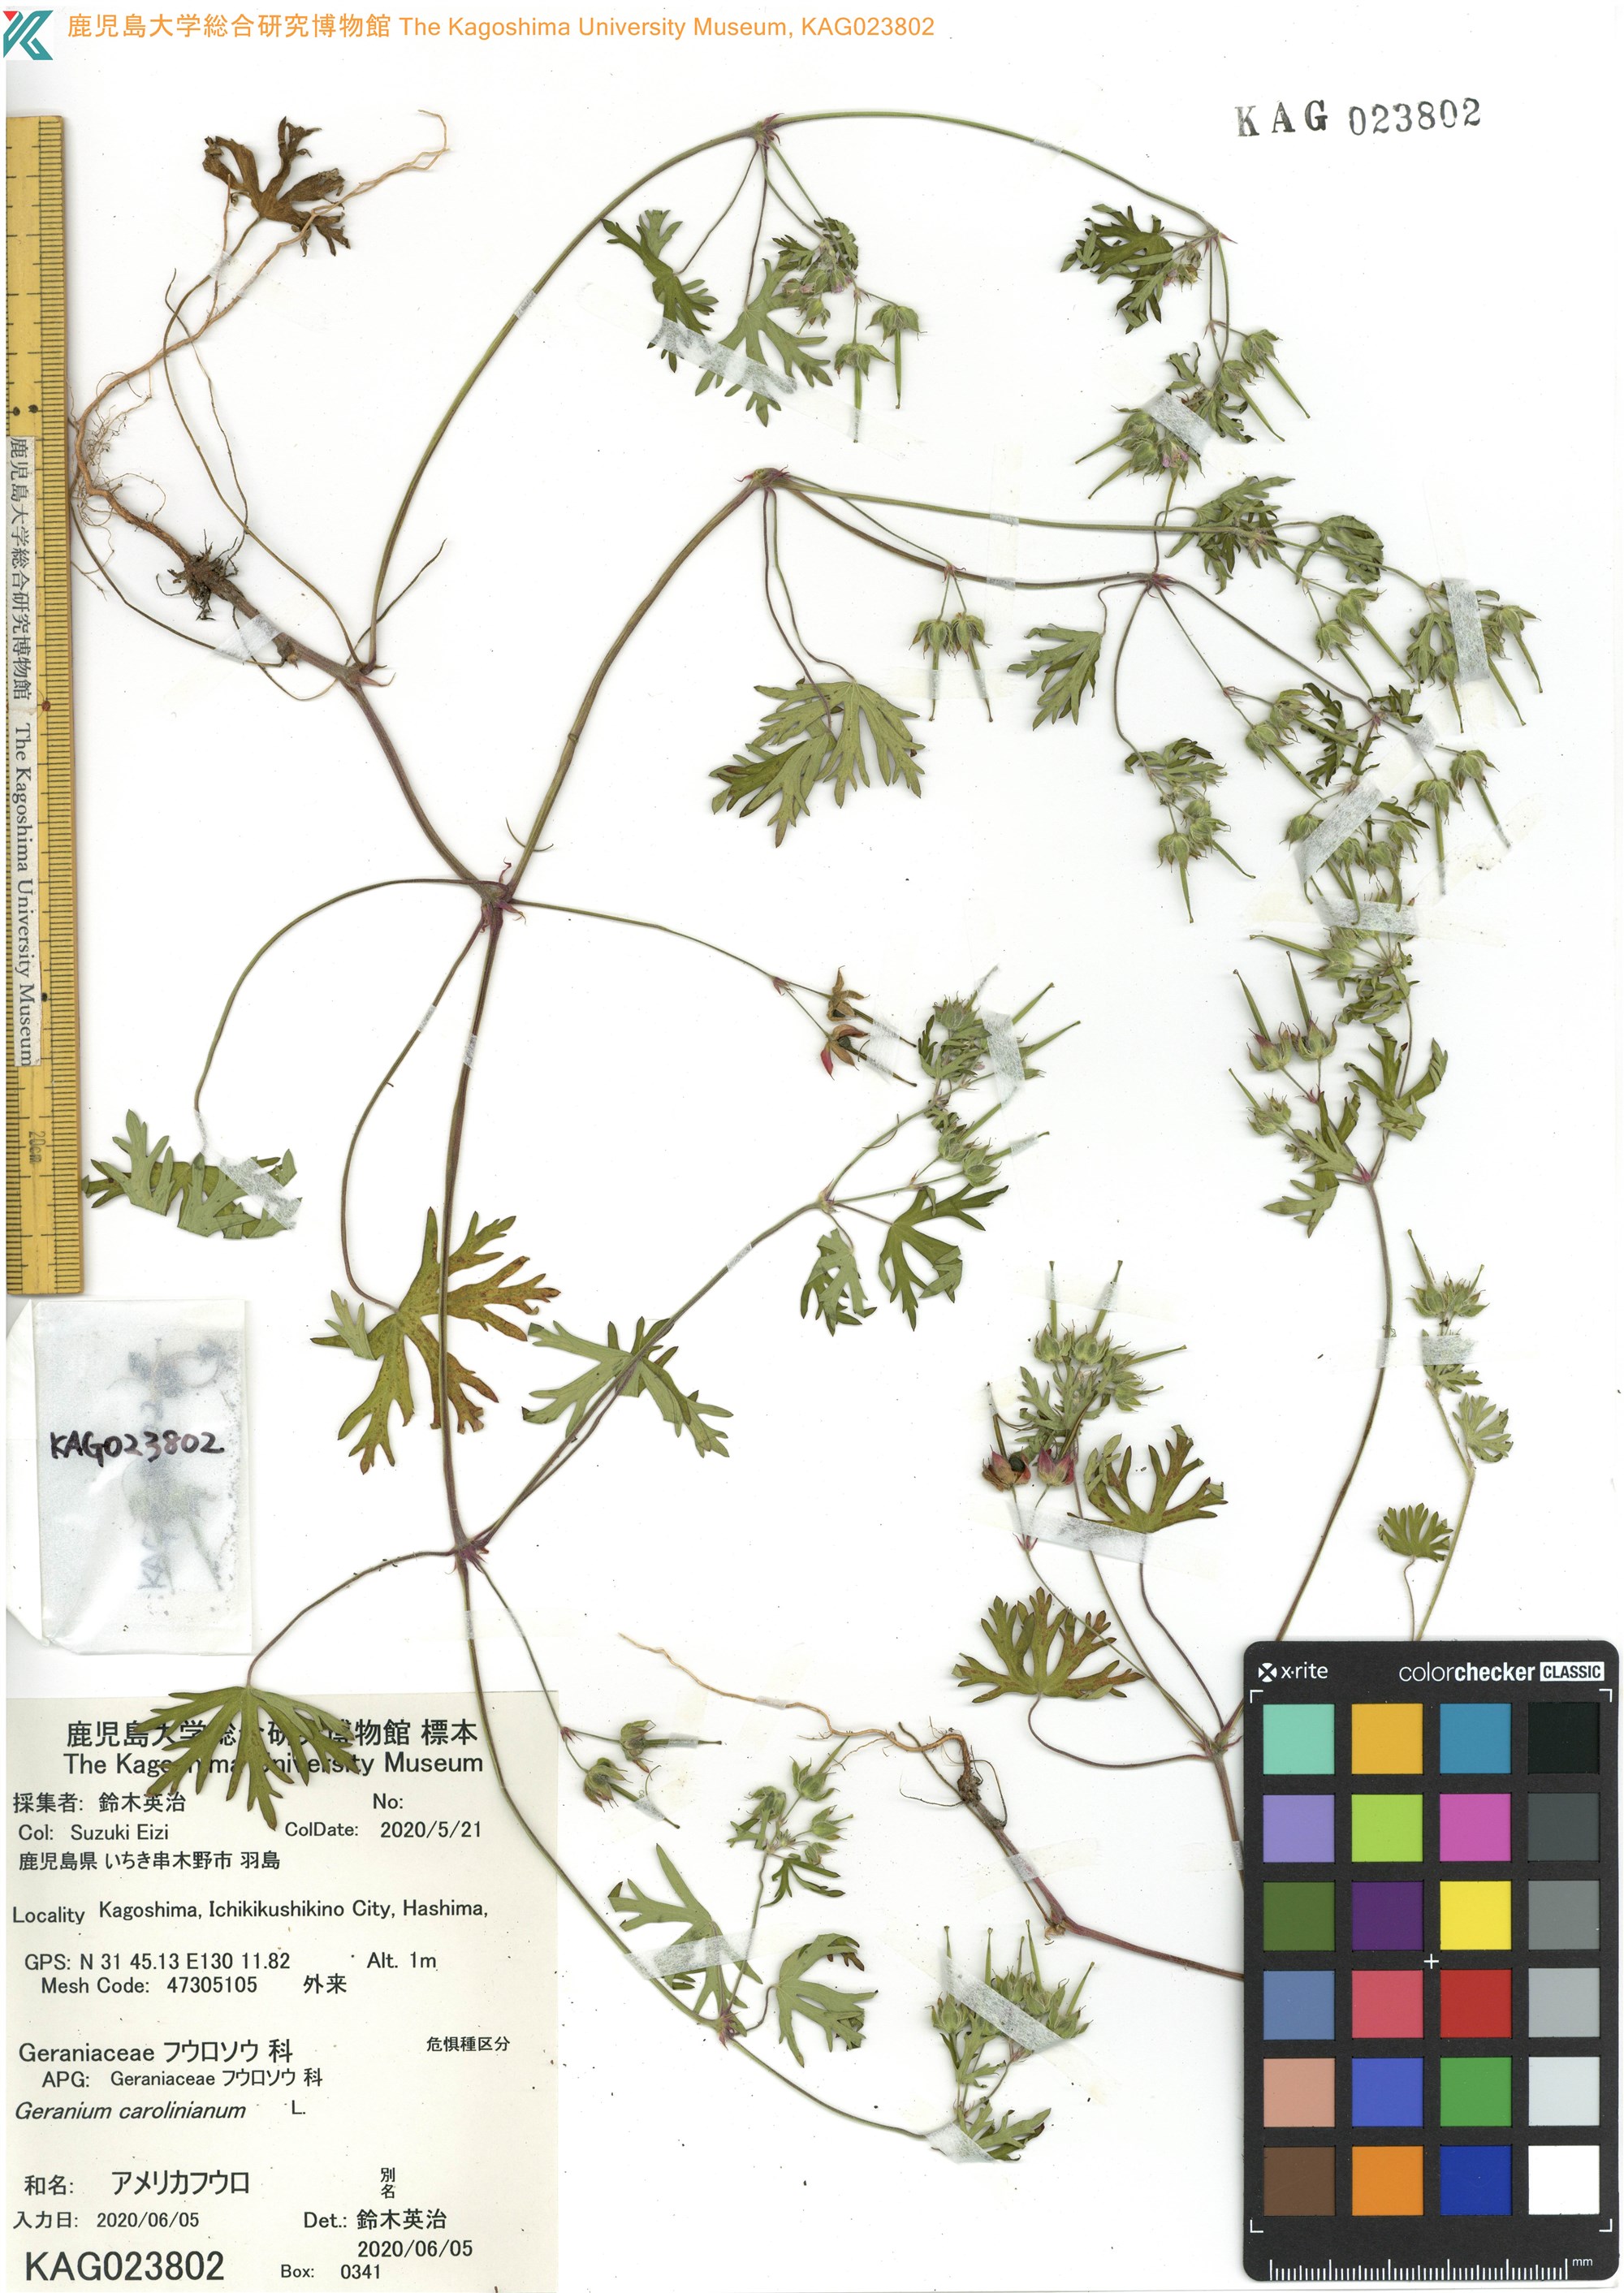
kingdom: Plantae
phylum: Tracheophyta
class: Magnoliopsida
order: Geraniales
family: Geraniaceae
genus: Geranium
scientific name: Geranium carolinianum
